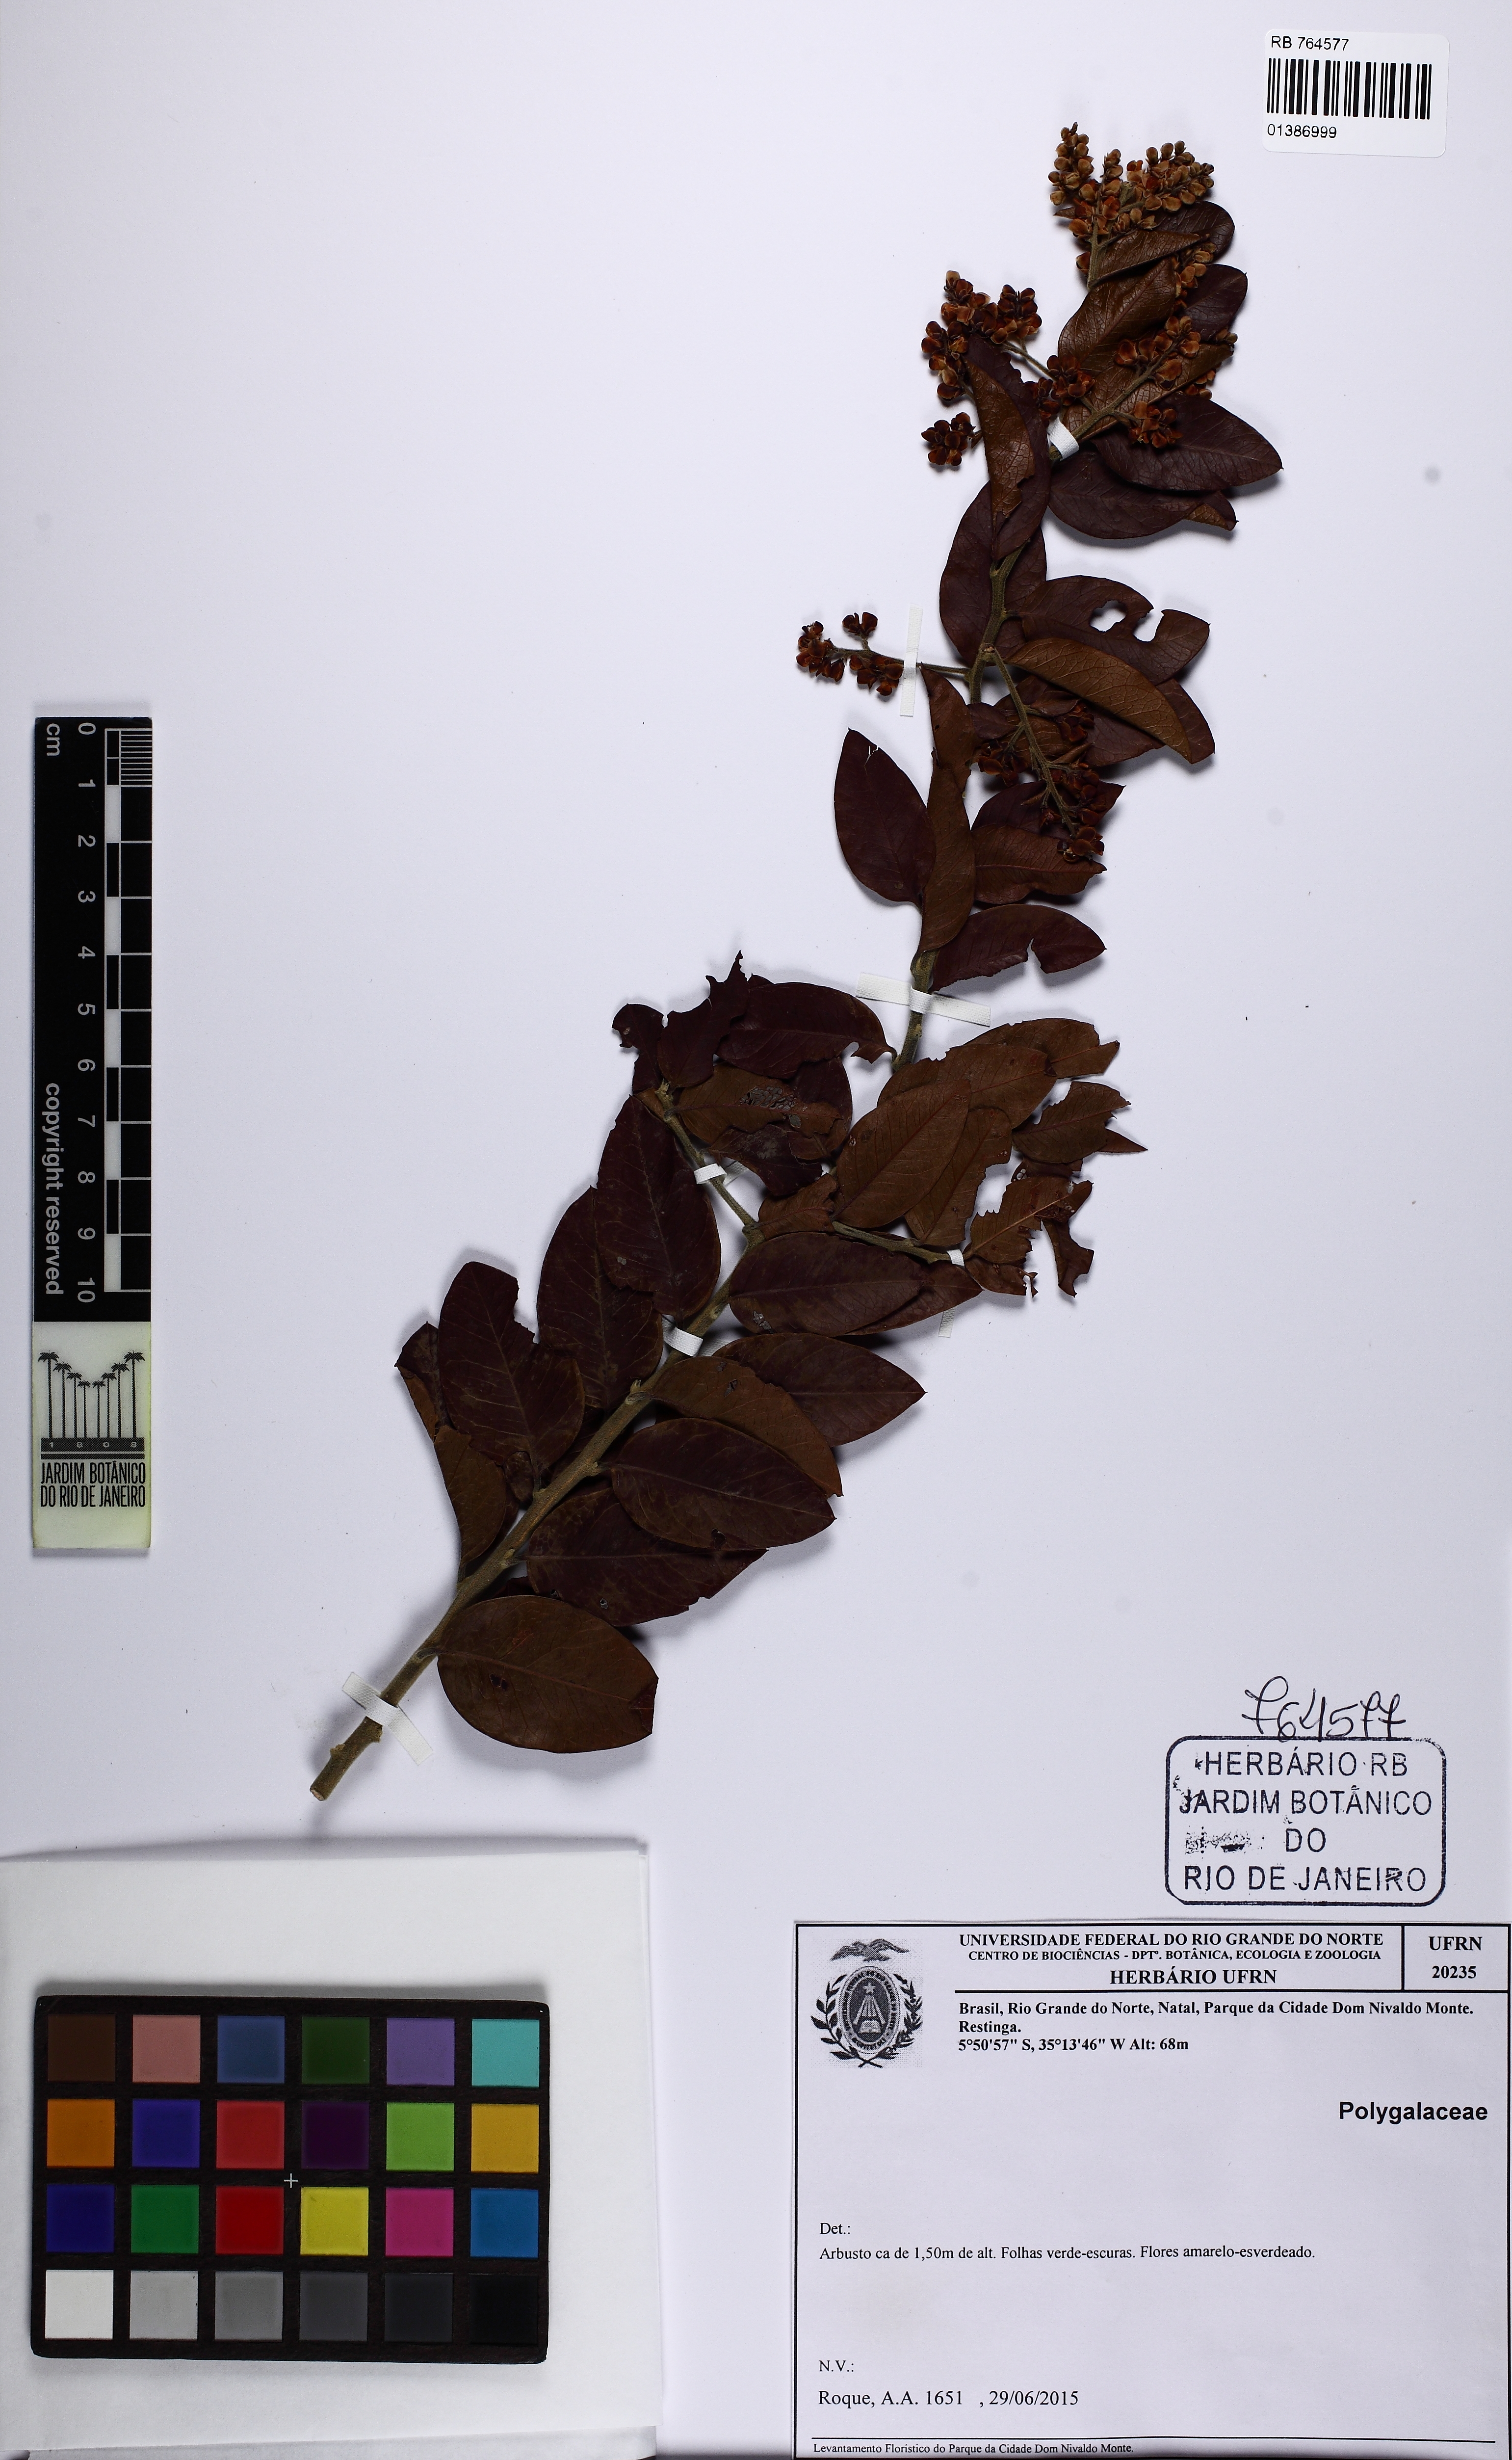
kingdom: Plantae
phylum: Tracheophyta
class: Magnoliopsida
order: Fabales
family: Polygalaceae
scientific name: Polygalaceae
